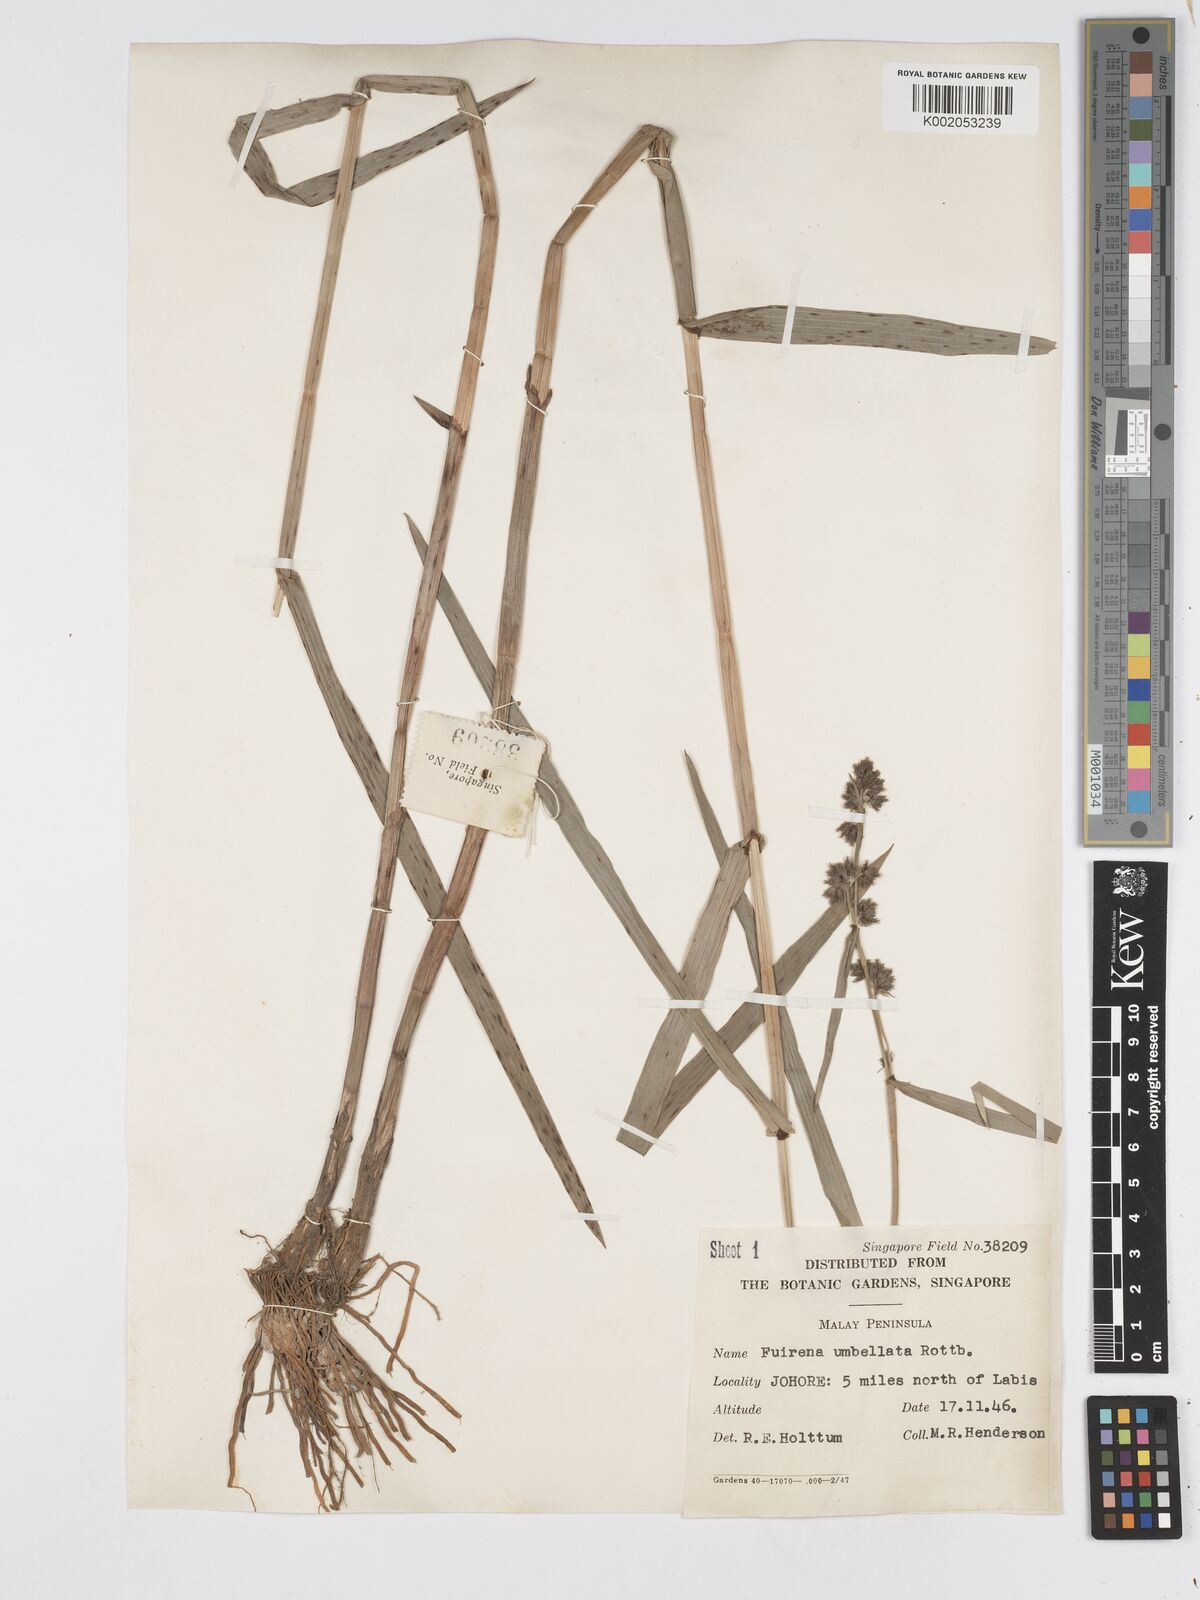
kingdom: Plantae
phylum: Tracheophyta
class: Liliopsida
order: Poales
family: Cyperaceae
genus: Fuirena
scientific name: Fuirena umbellata
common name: Yefen
